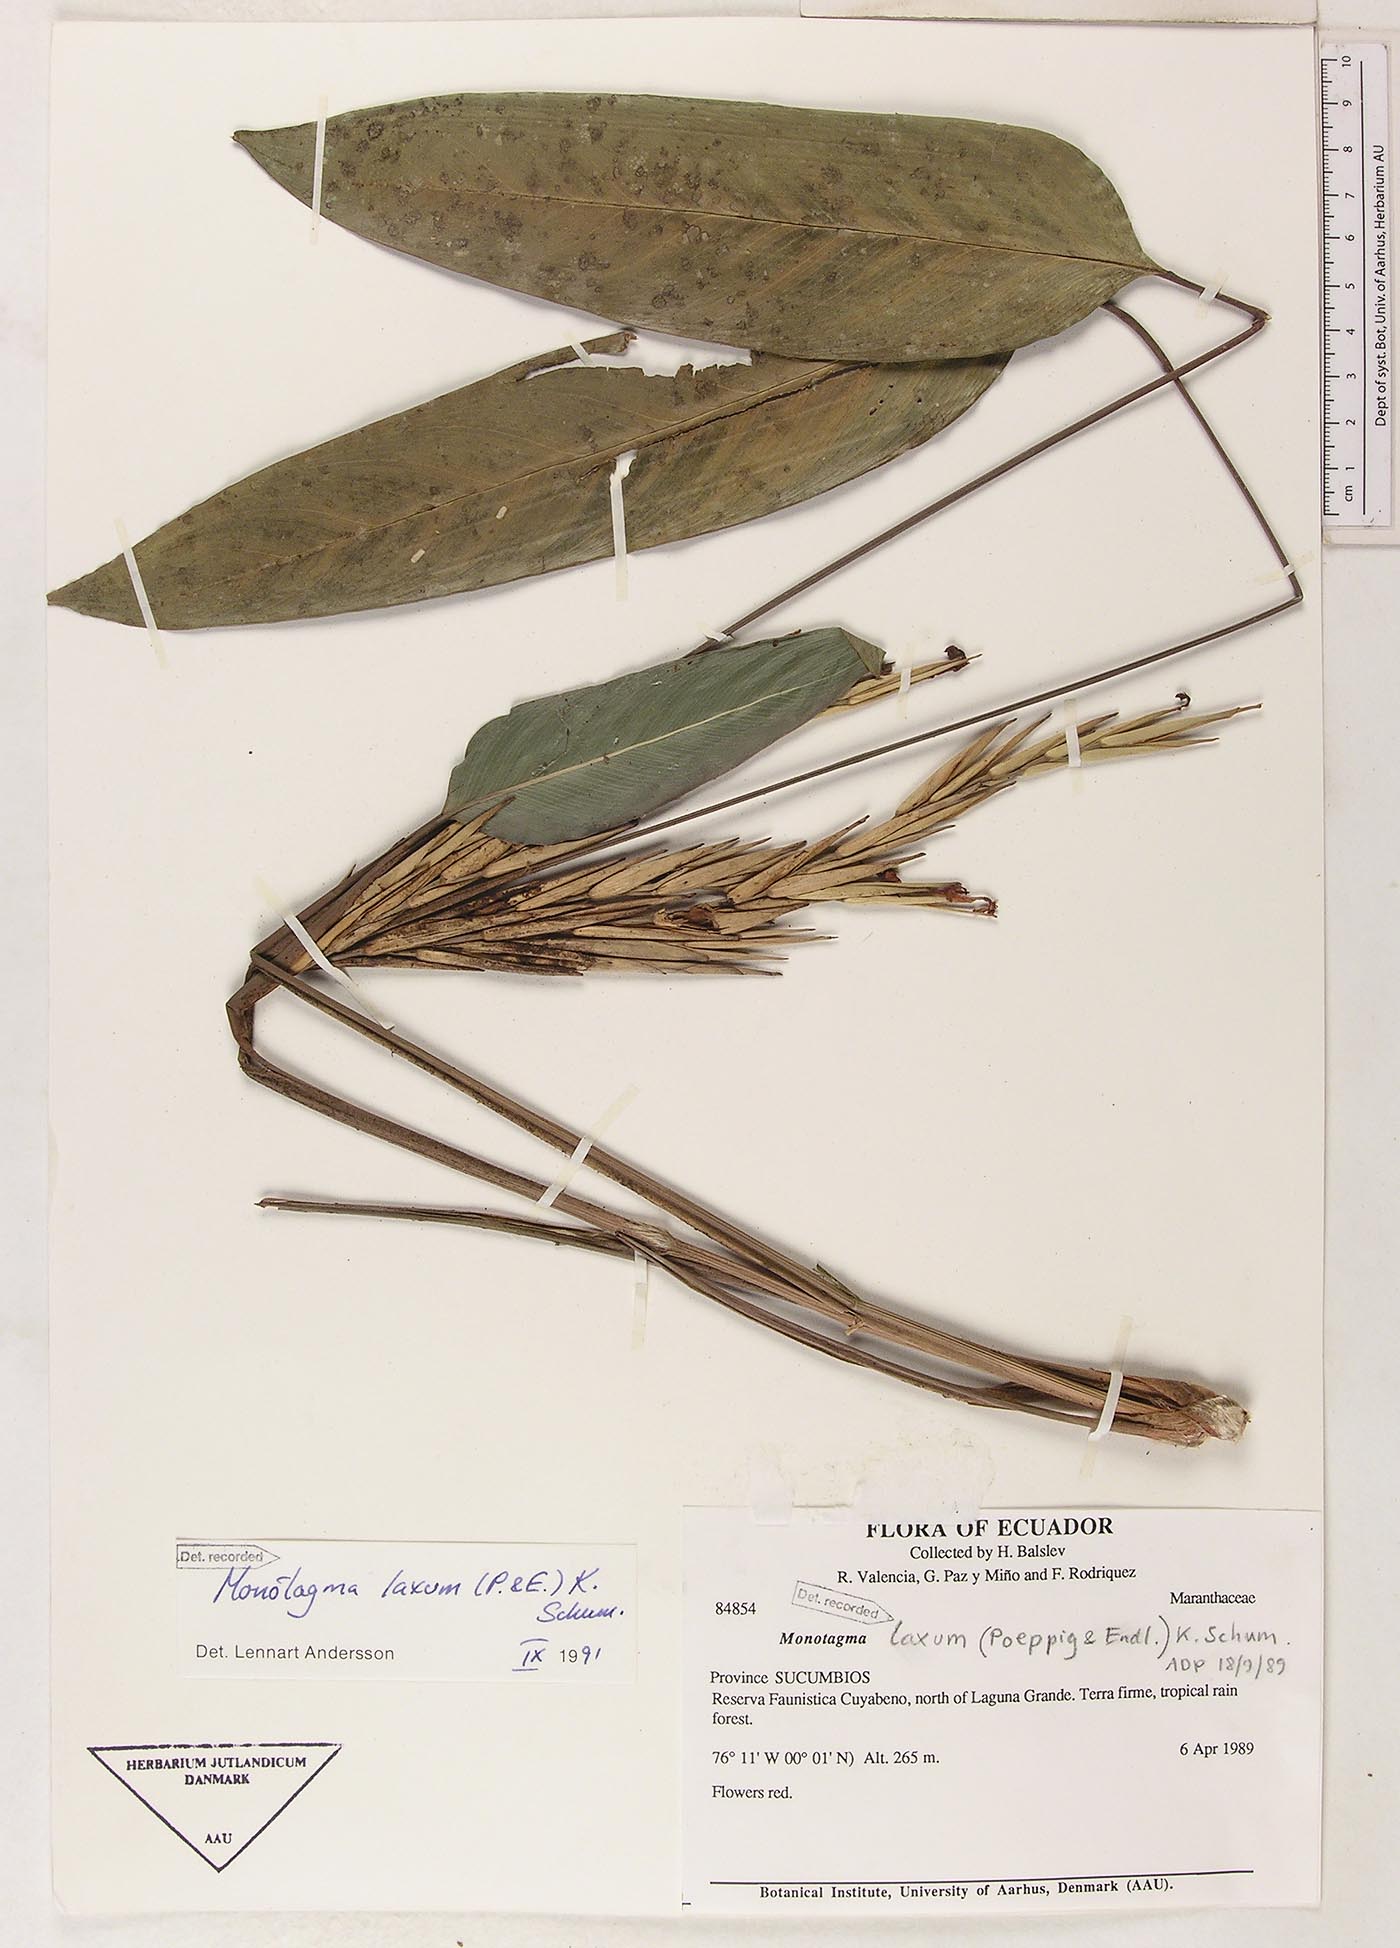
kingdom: Plantae
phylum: Tracheophyta
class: Liliopsida
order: Zingiberales
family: Marantaceae
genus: Monotagma
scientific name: Monotagma laxum
